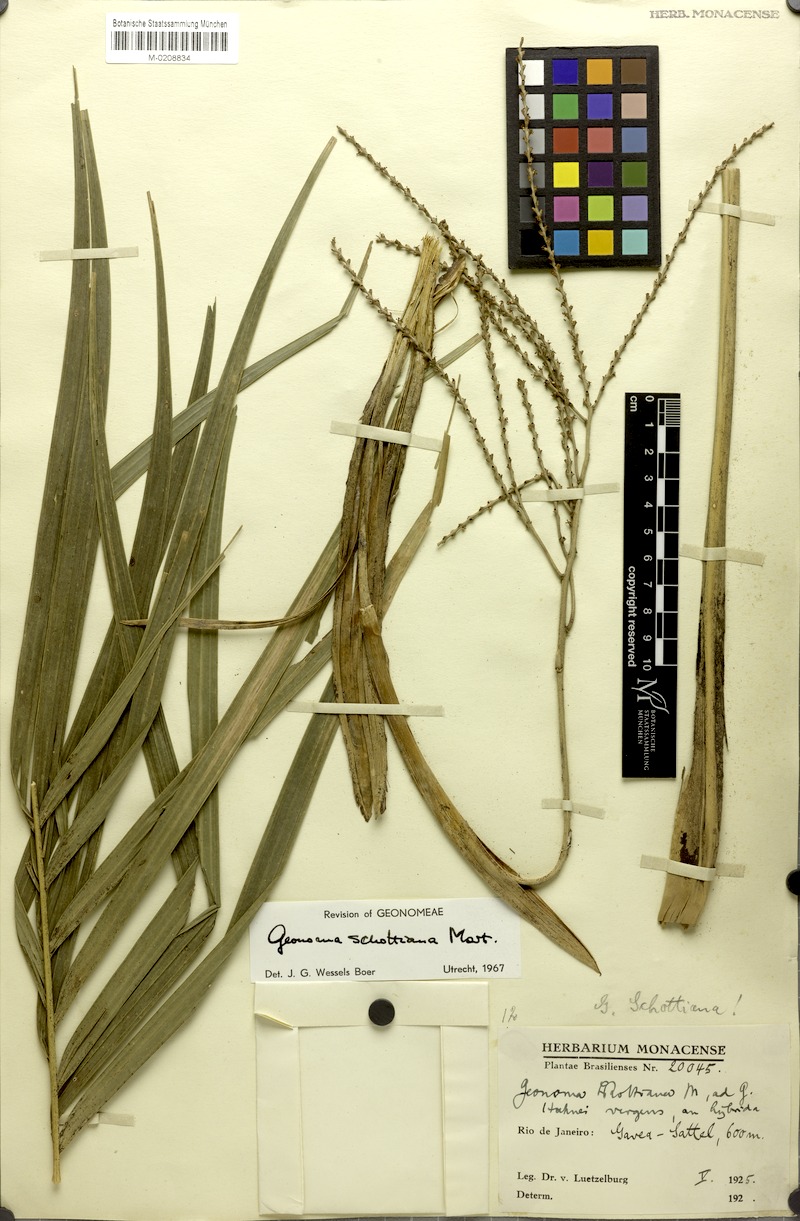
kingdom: Plantae
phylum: Tracheophyta
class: Liliopsida
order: Arecales
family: Arecaceae
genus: Geonoma
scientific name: Geonoma schottiana
